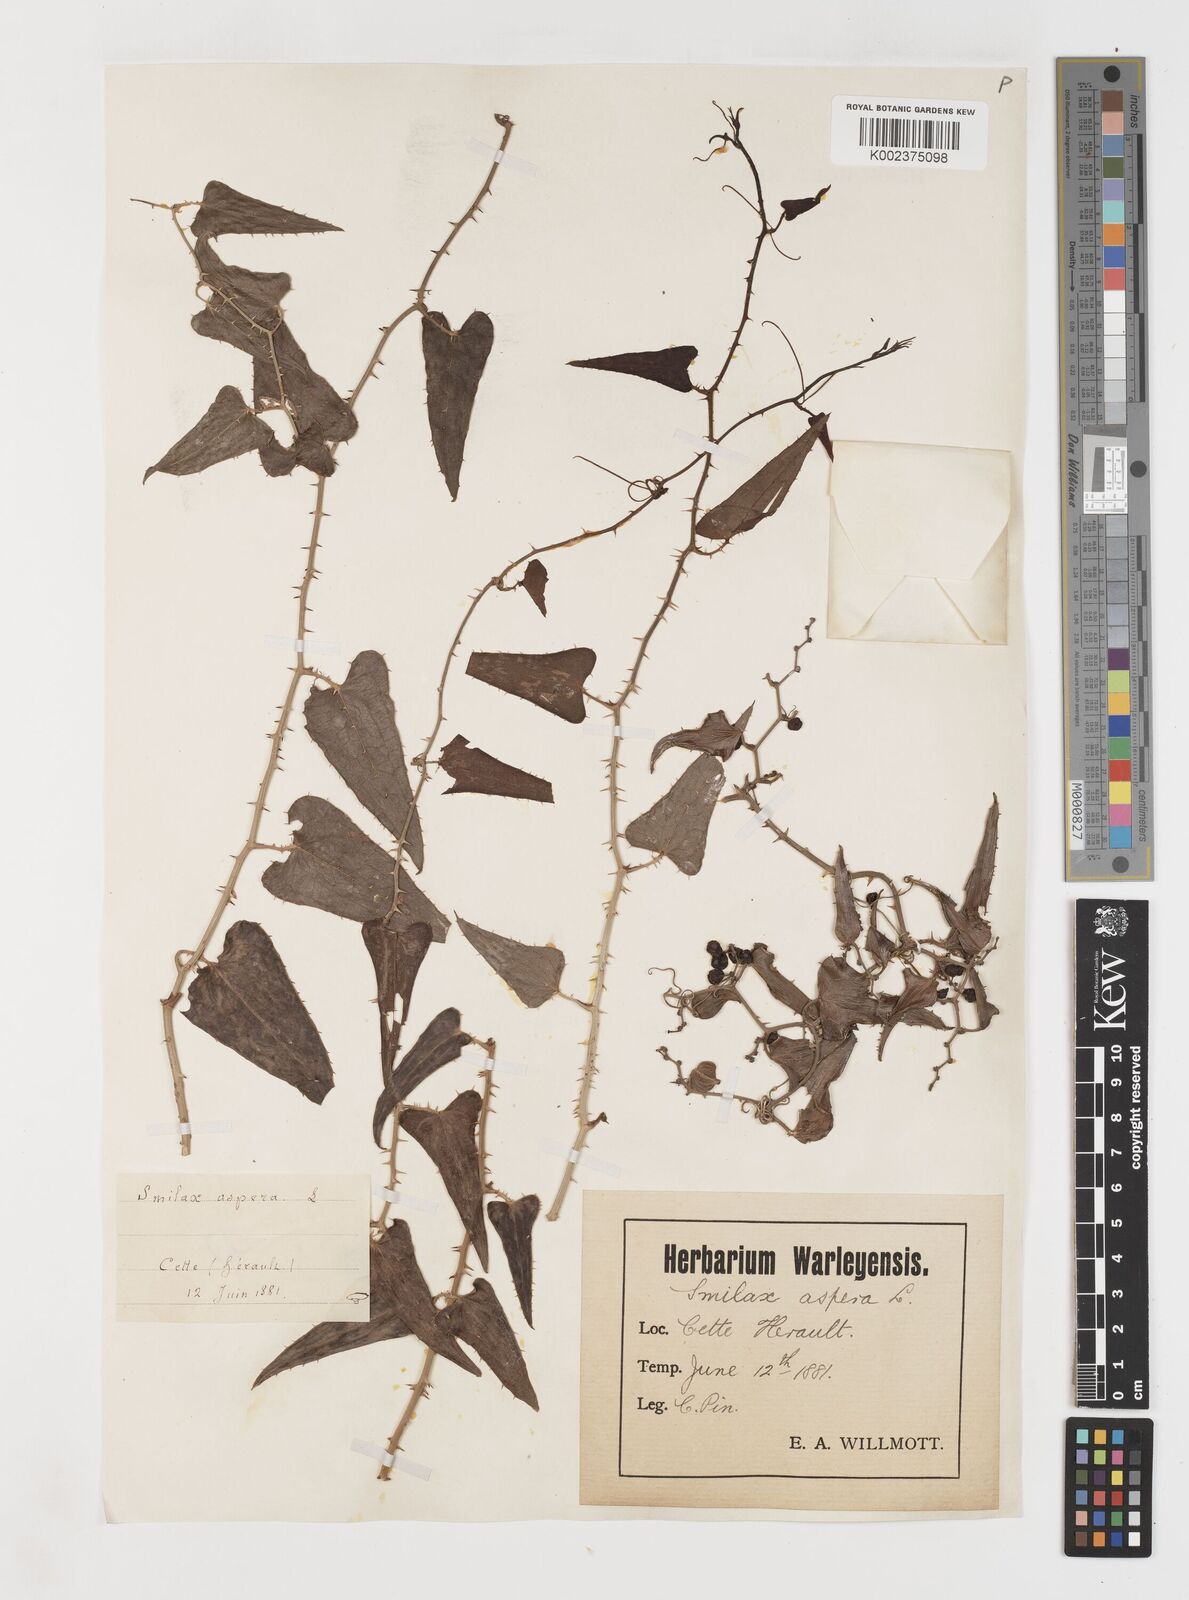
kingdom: Plantae
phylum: Tracheophyta
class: Liliopsida
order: Liliales
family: Smilacaceae
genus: Smilax
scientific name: Smilax aspera
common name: Common smilax
